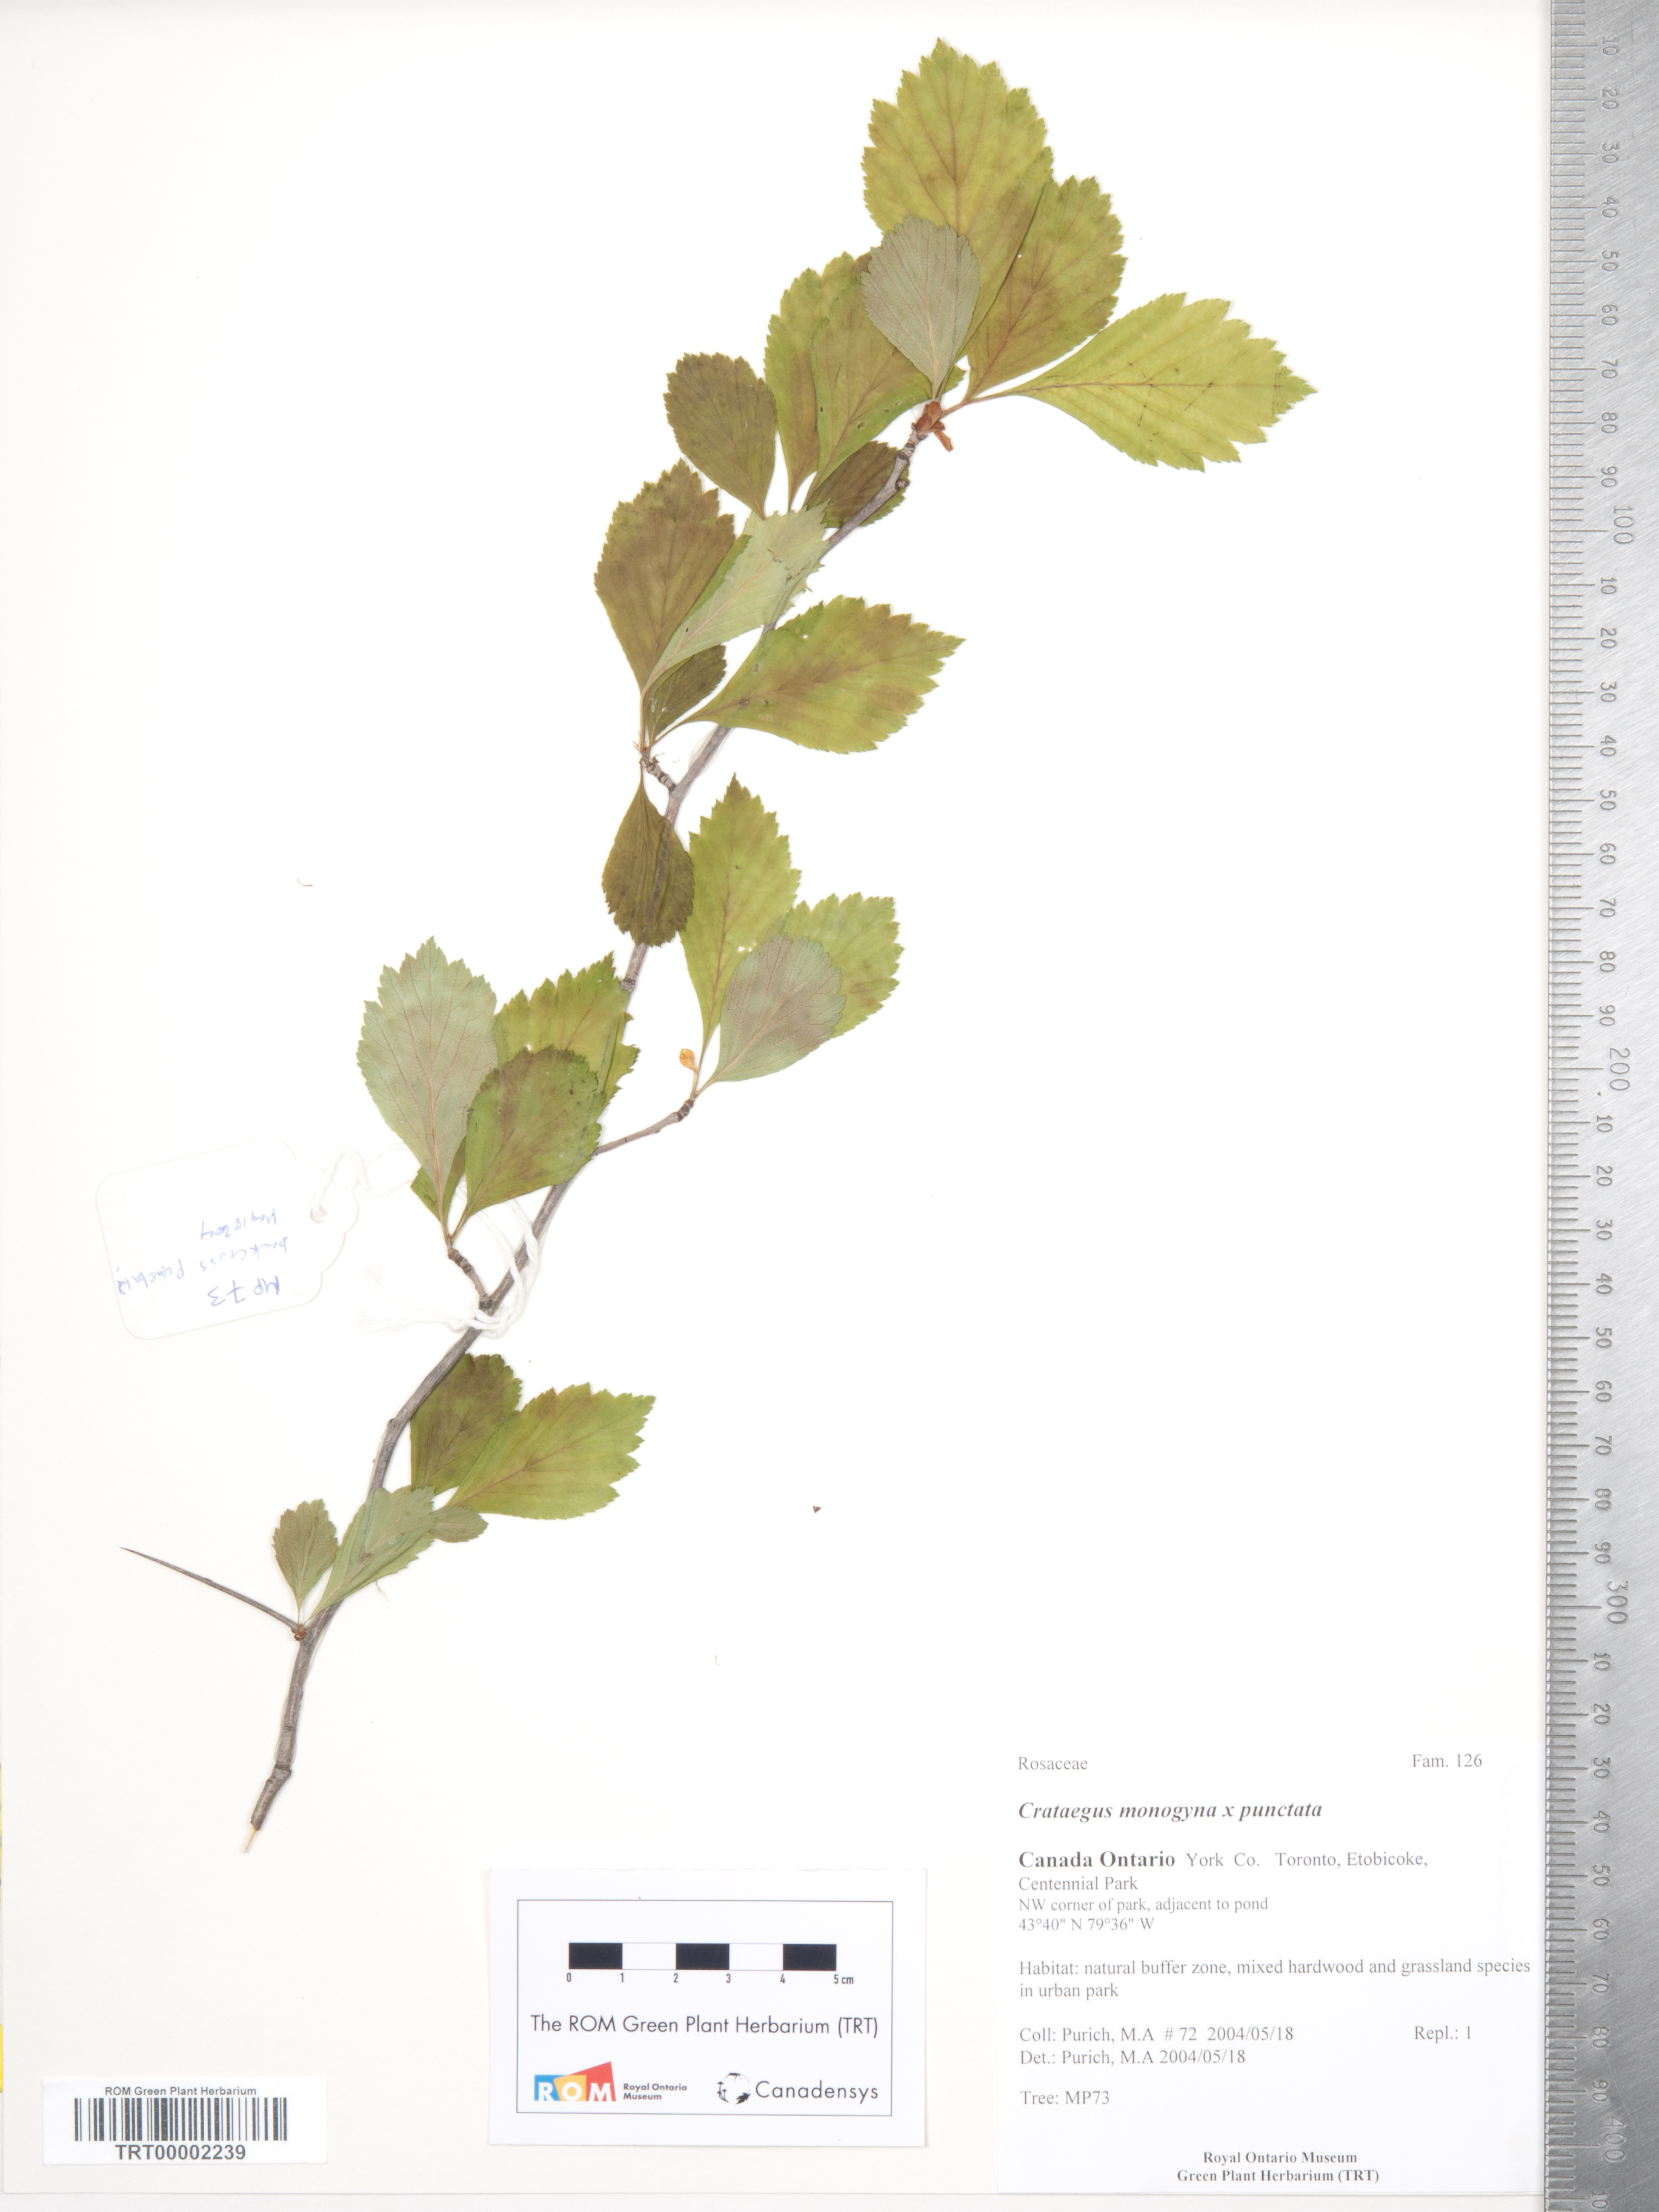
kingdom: Plantae
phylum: Tracheophyta
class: Magnoliopsida
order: Rosales
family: Rosaceae
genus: Crataegus
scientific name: Crataegus
